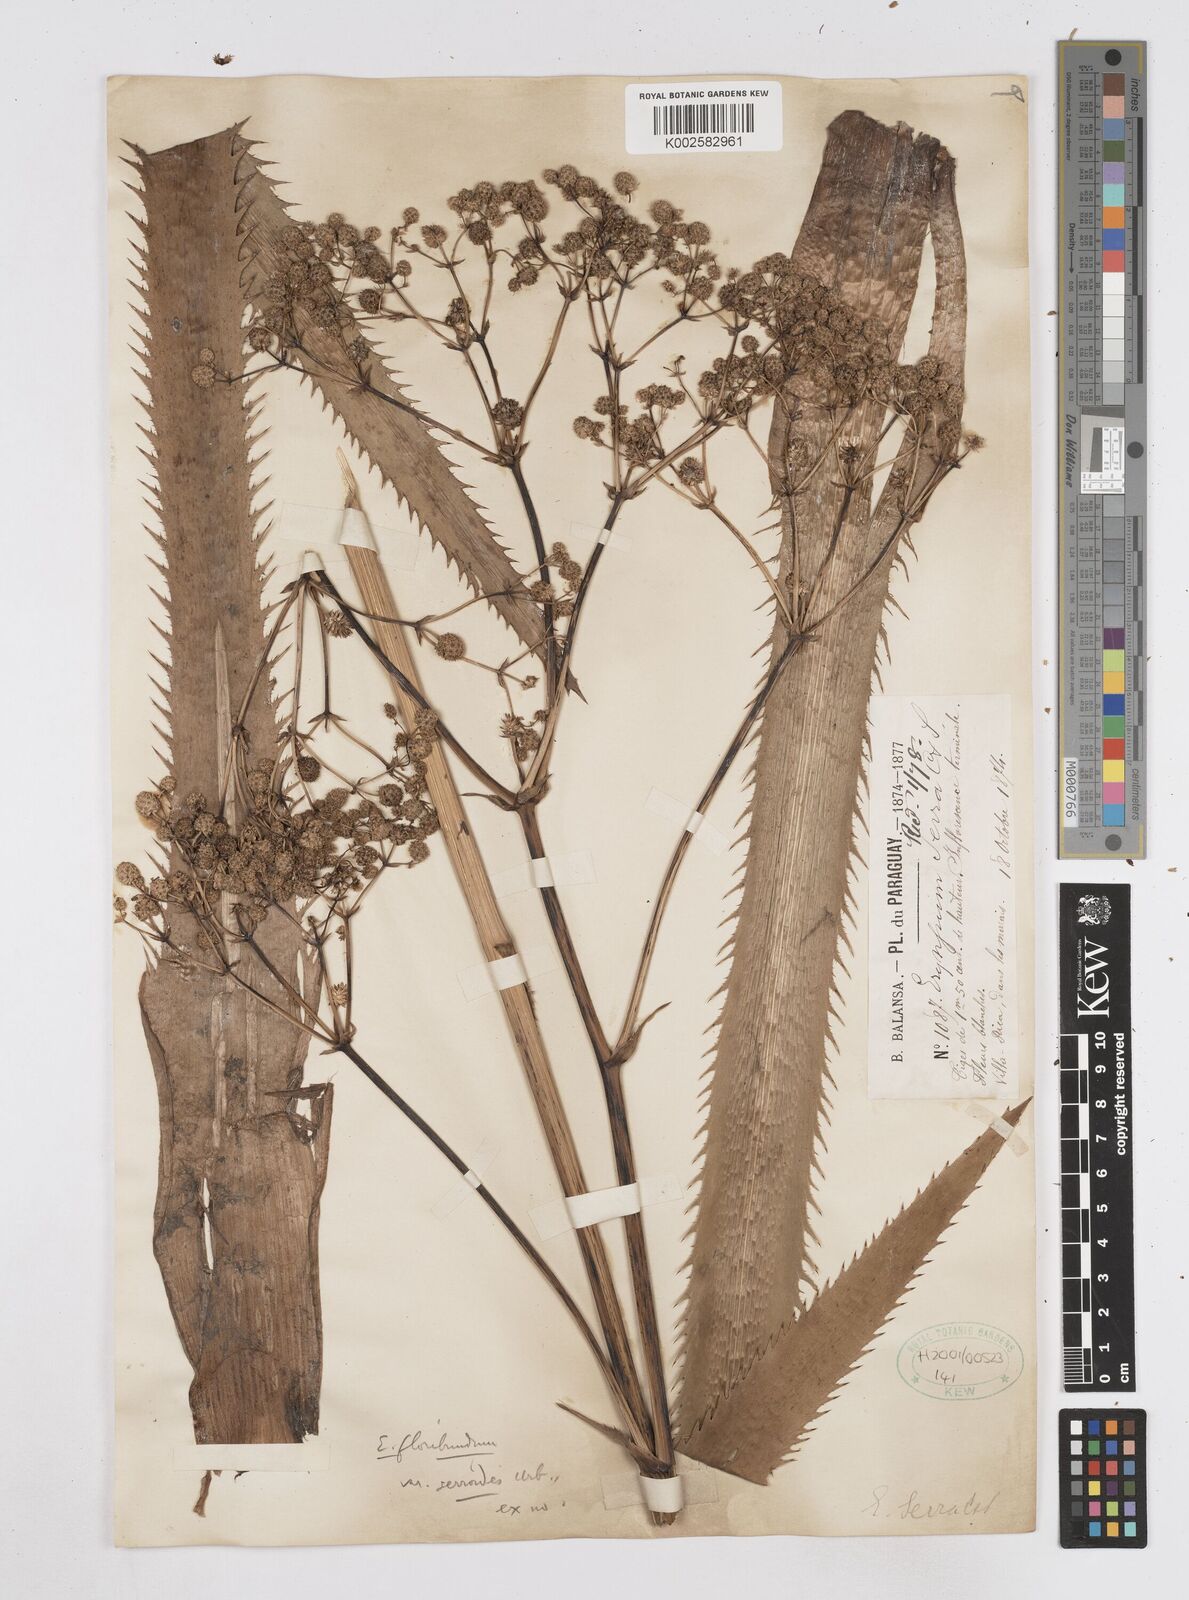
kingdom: Plantae
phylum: Tracheophyta
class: Magnoliopsida
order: Apiales
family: Apiaceae
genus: Eryngium
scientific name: Eryngium floribundum
